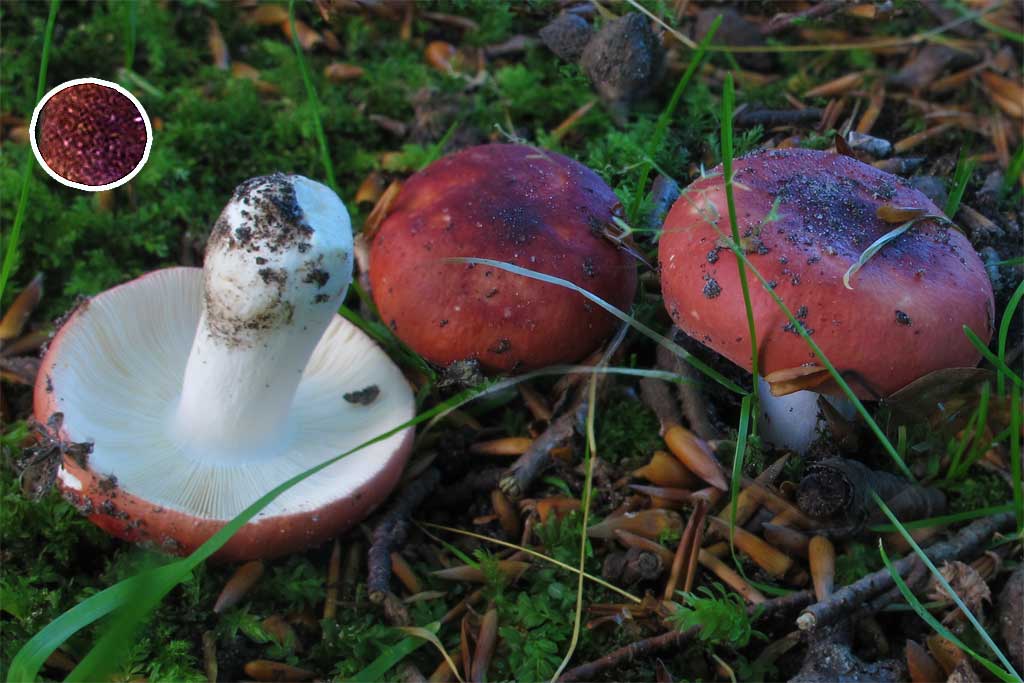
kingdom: Fungi
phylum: Basidiomycota
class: Agaricomycetes
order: Russulales
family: Russulaceae
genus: Russula
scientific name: Russula emeticicolor
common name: giftrød skørhat
